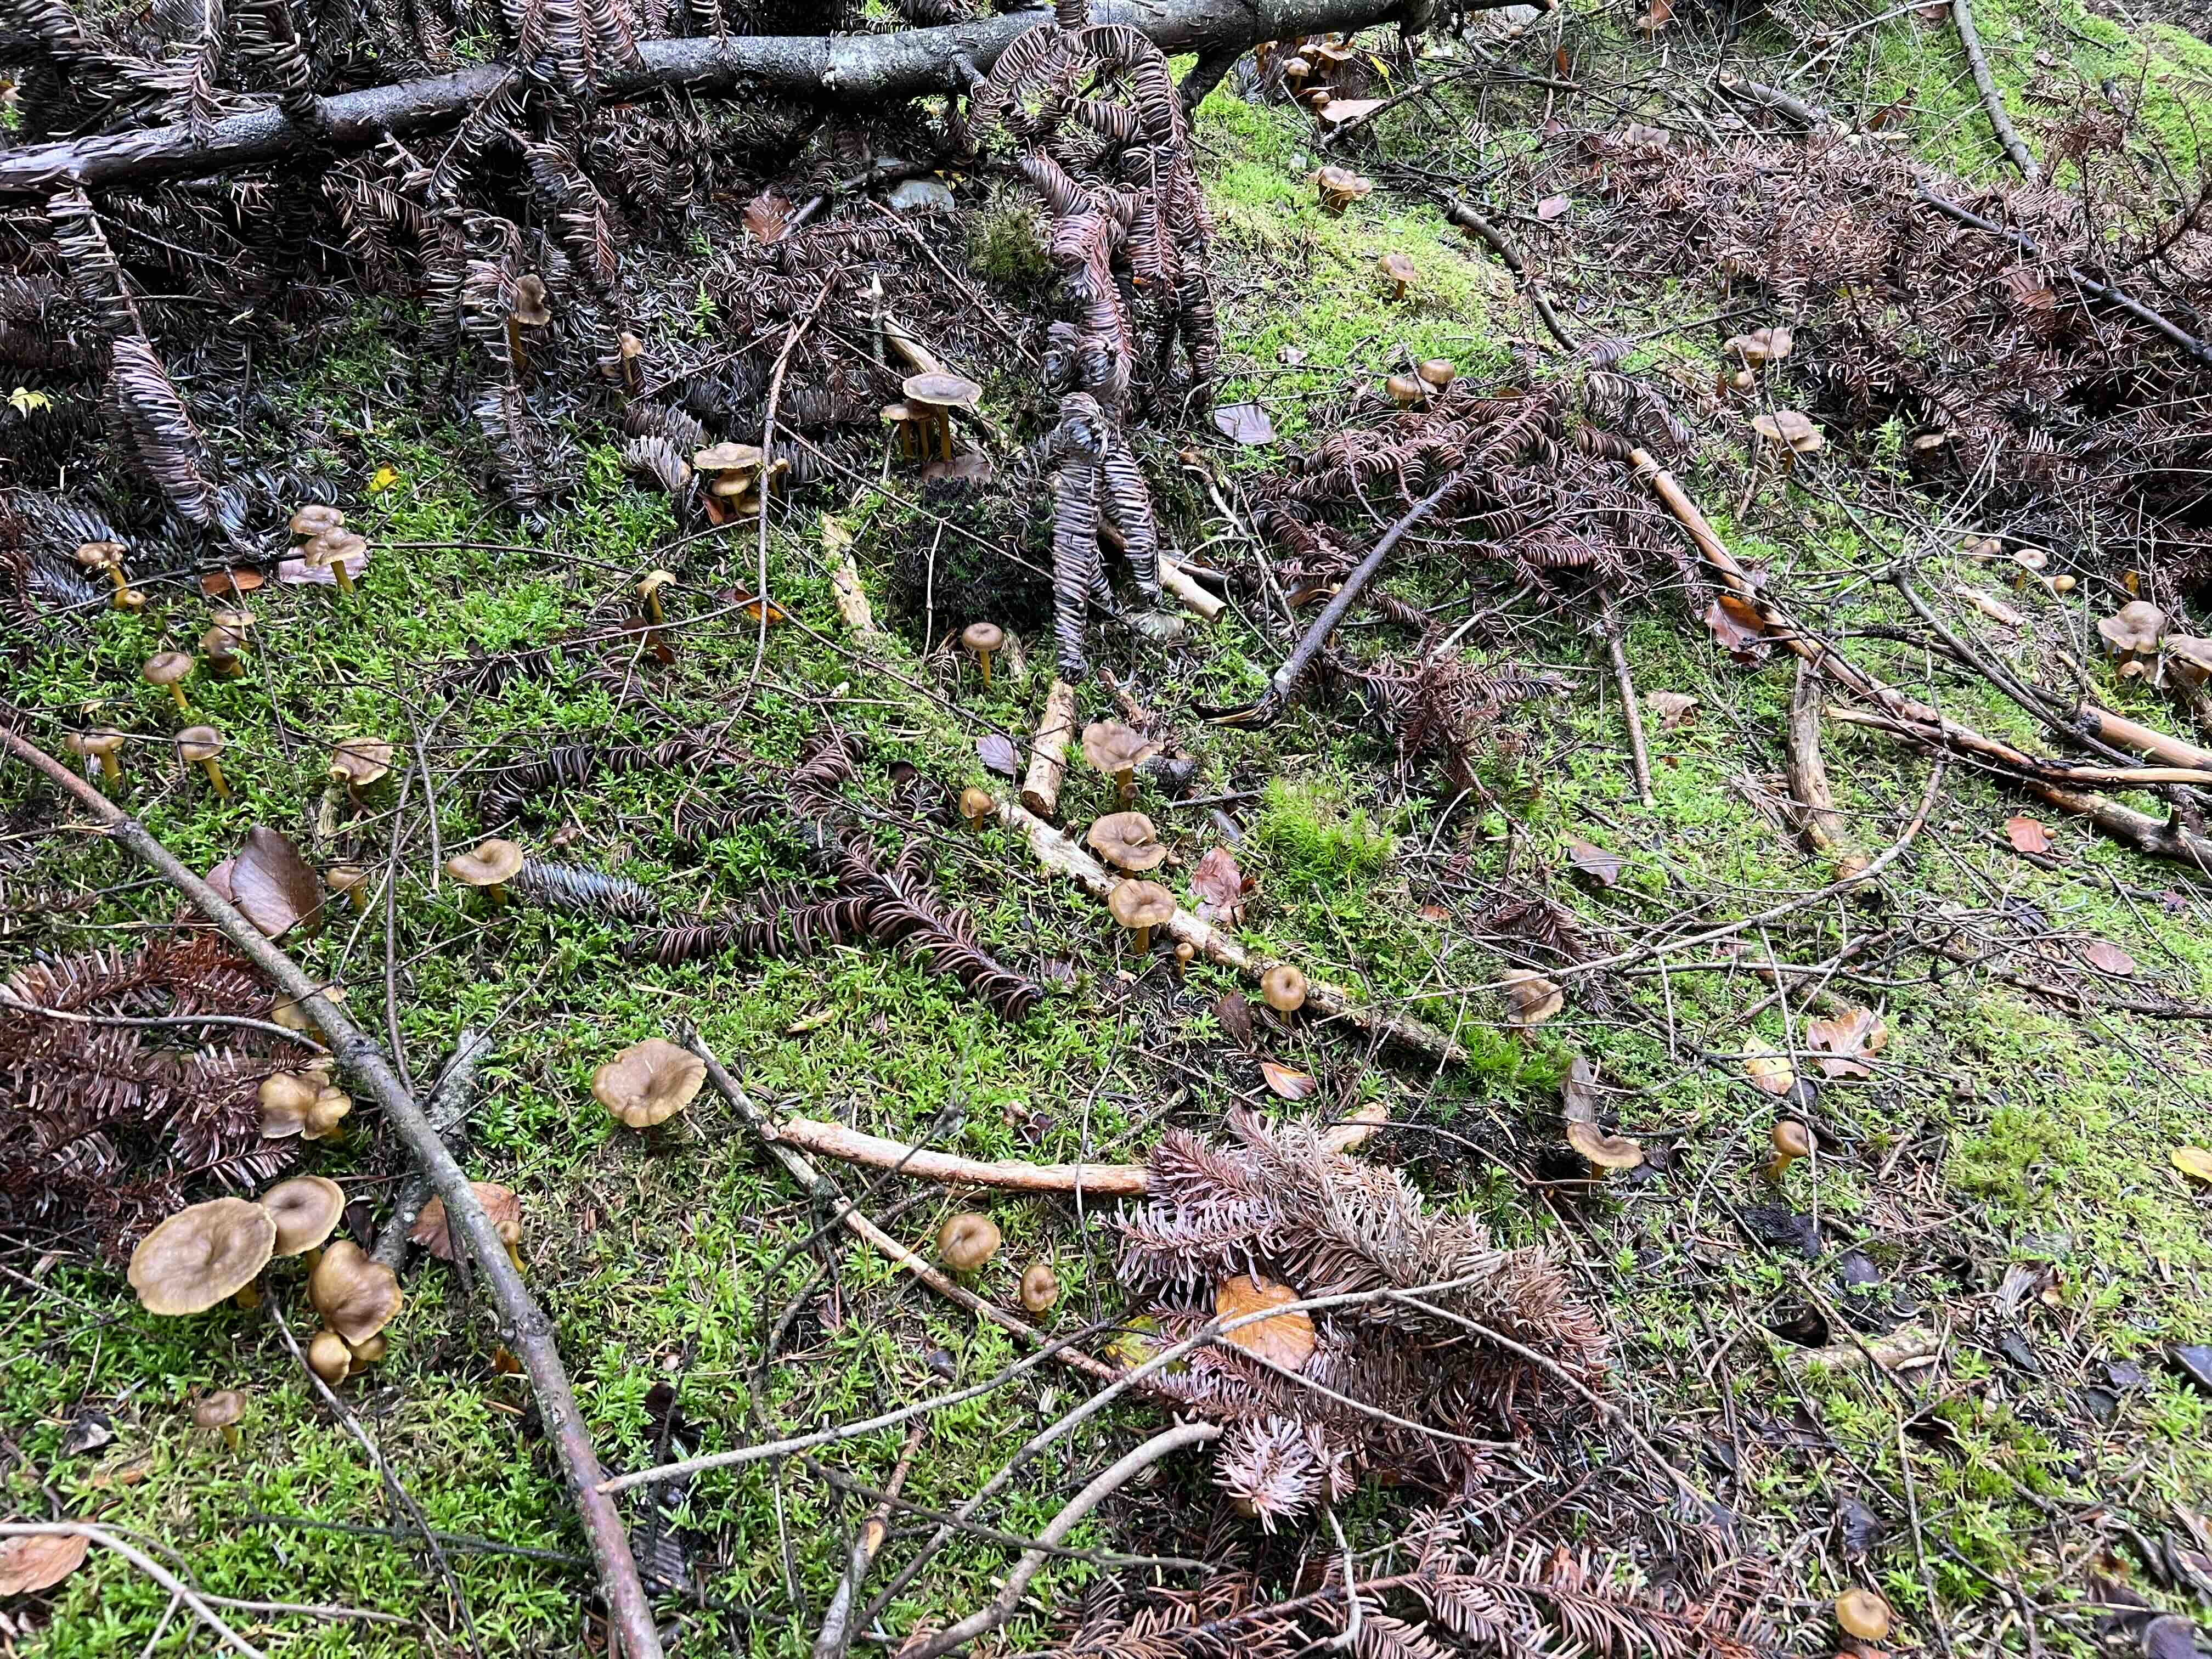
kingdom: Fungi
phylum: Basidiomycota
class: Agaricomycetes
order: Cantharellales
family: Hydnaceae
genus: Craterellus
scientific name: Craterellus tubaeformis
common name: tragt-kantarel
